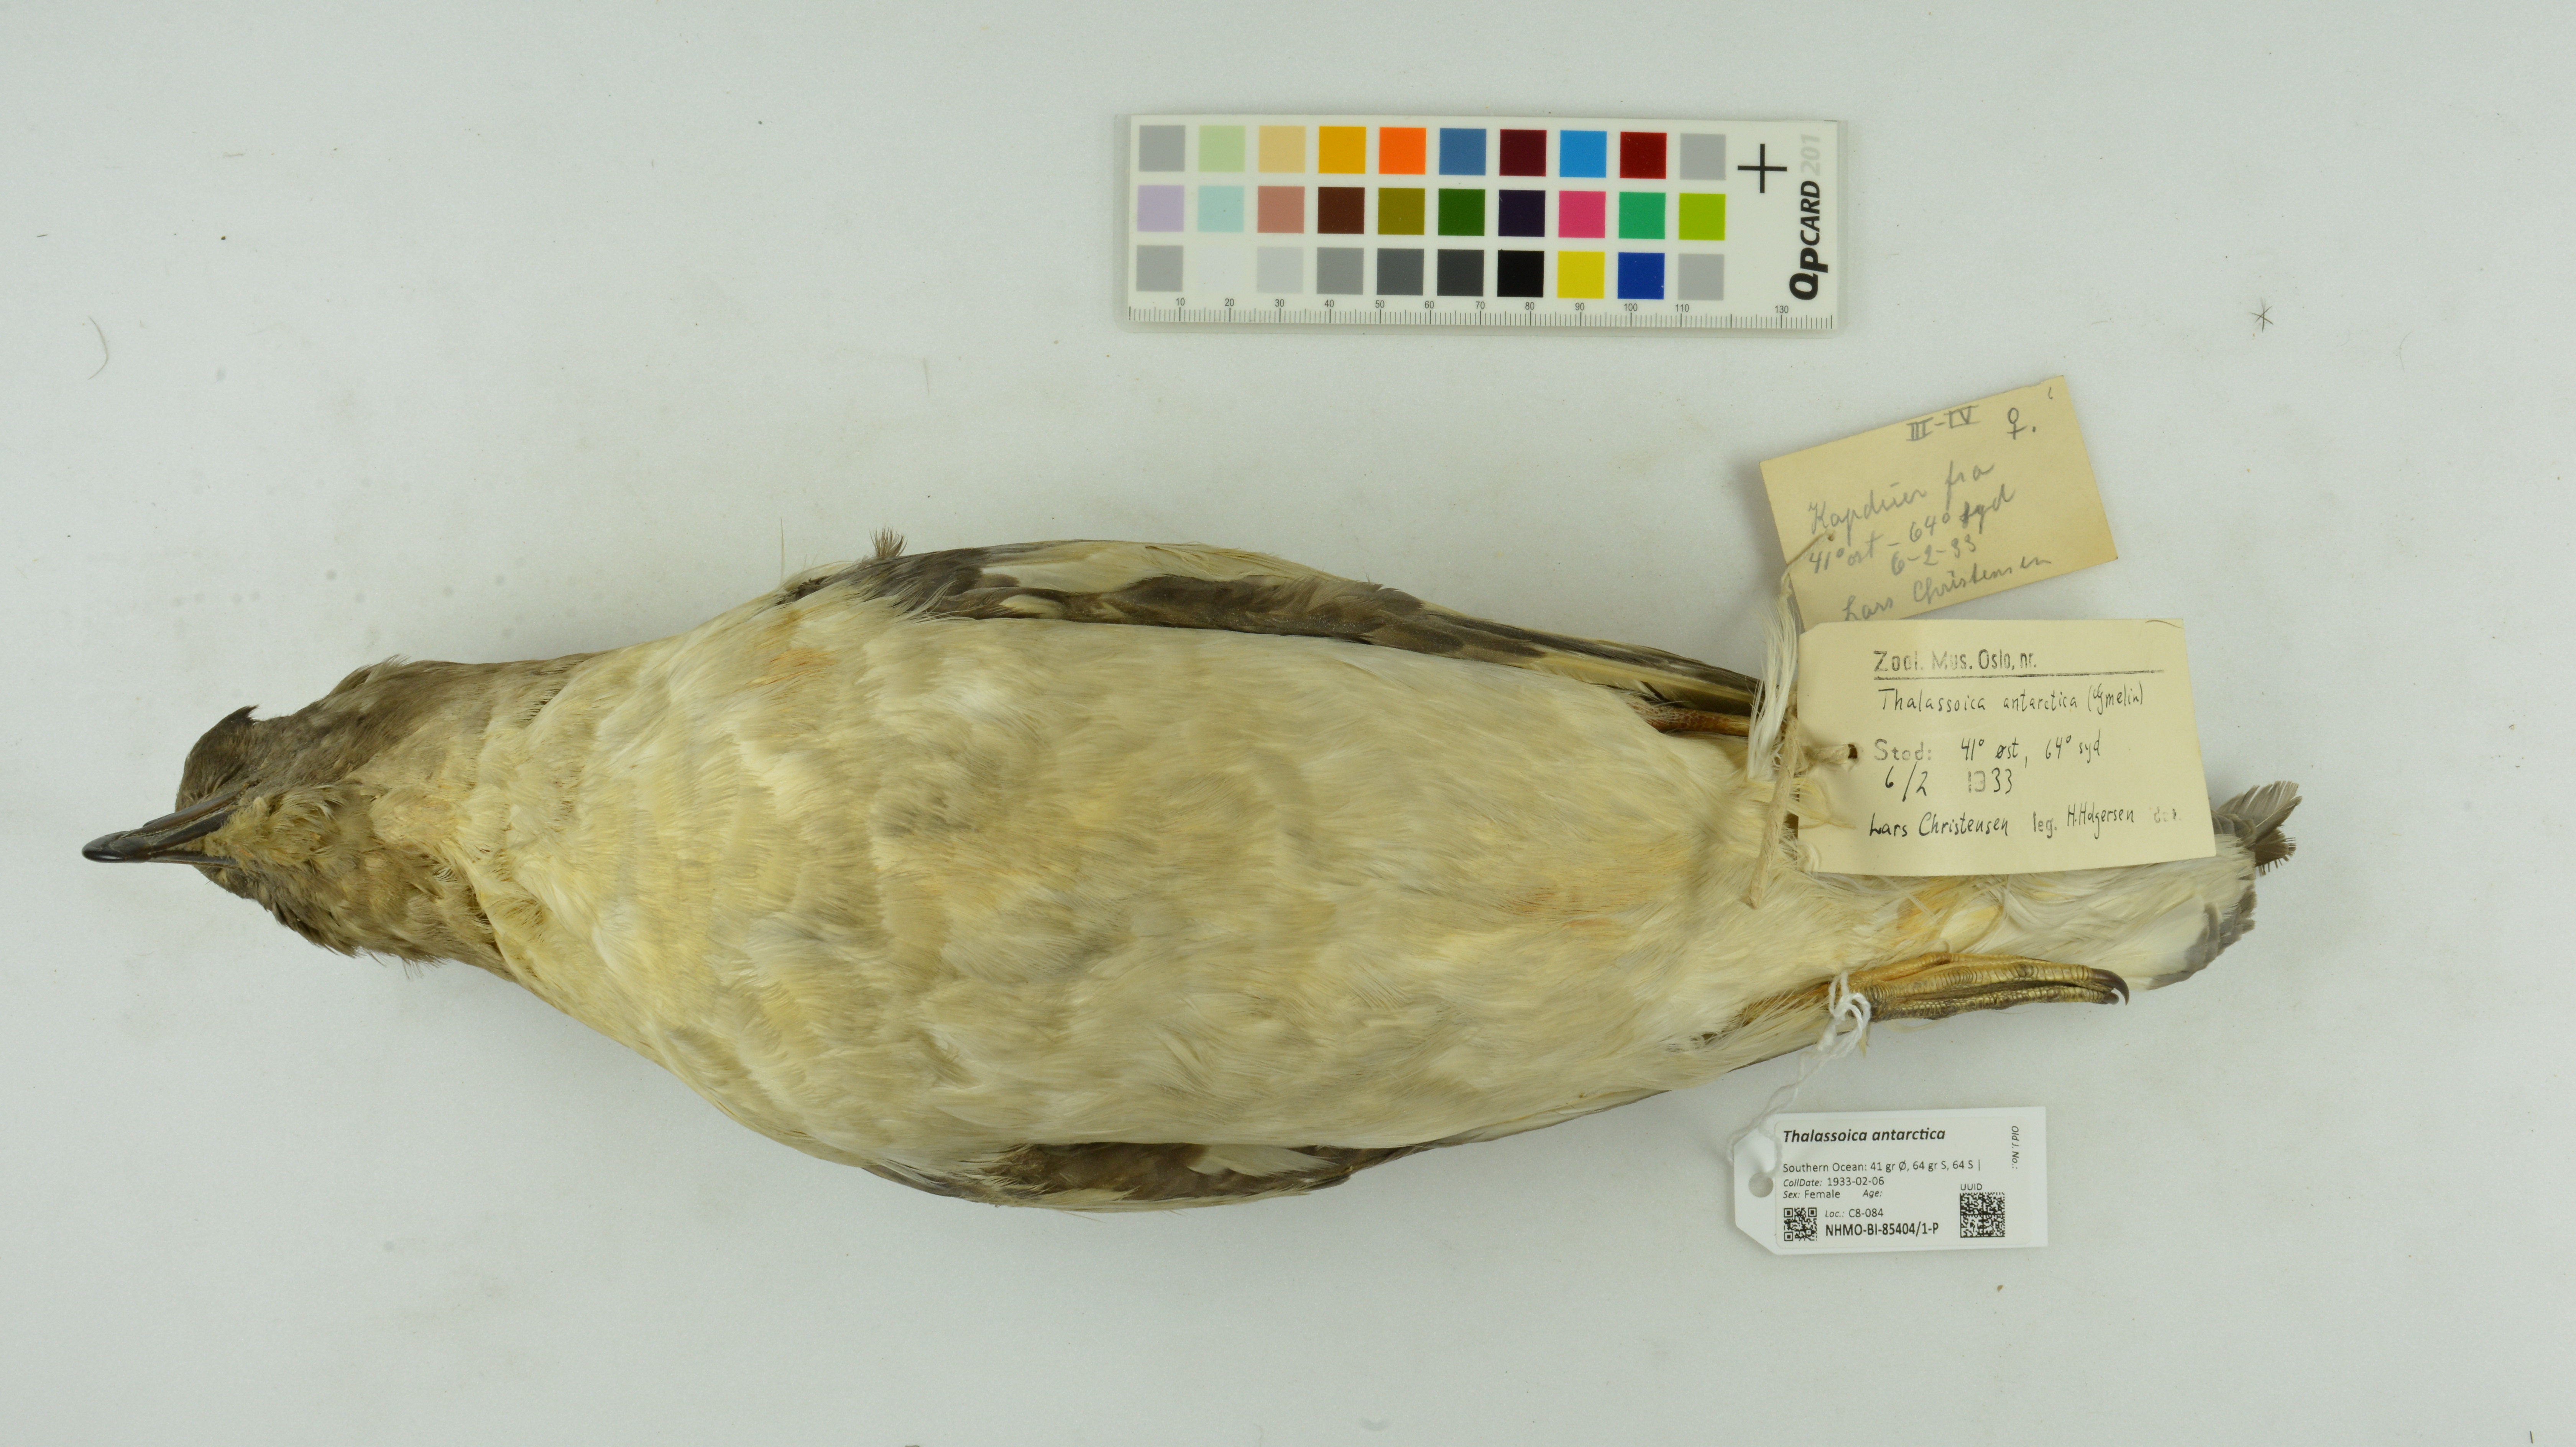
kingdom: Animalia
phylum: Chordata
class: Aves
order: Procellariiformes
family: Procellariidae
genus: Thalassoica
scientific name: Thalassoica antarctica
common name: Antarctic petrel
